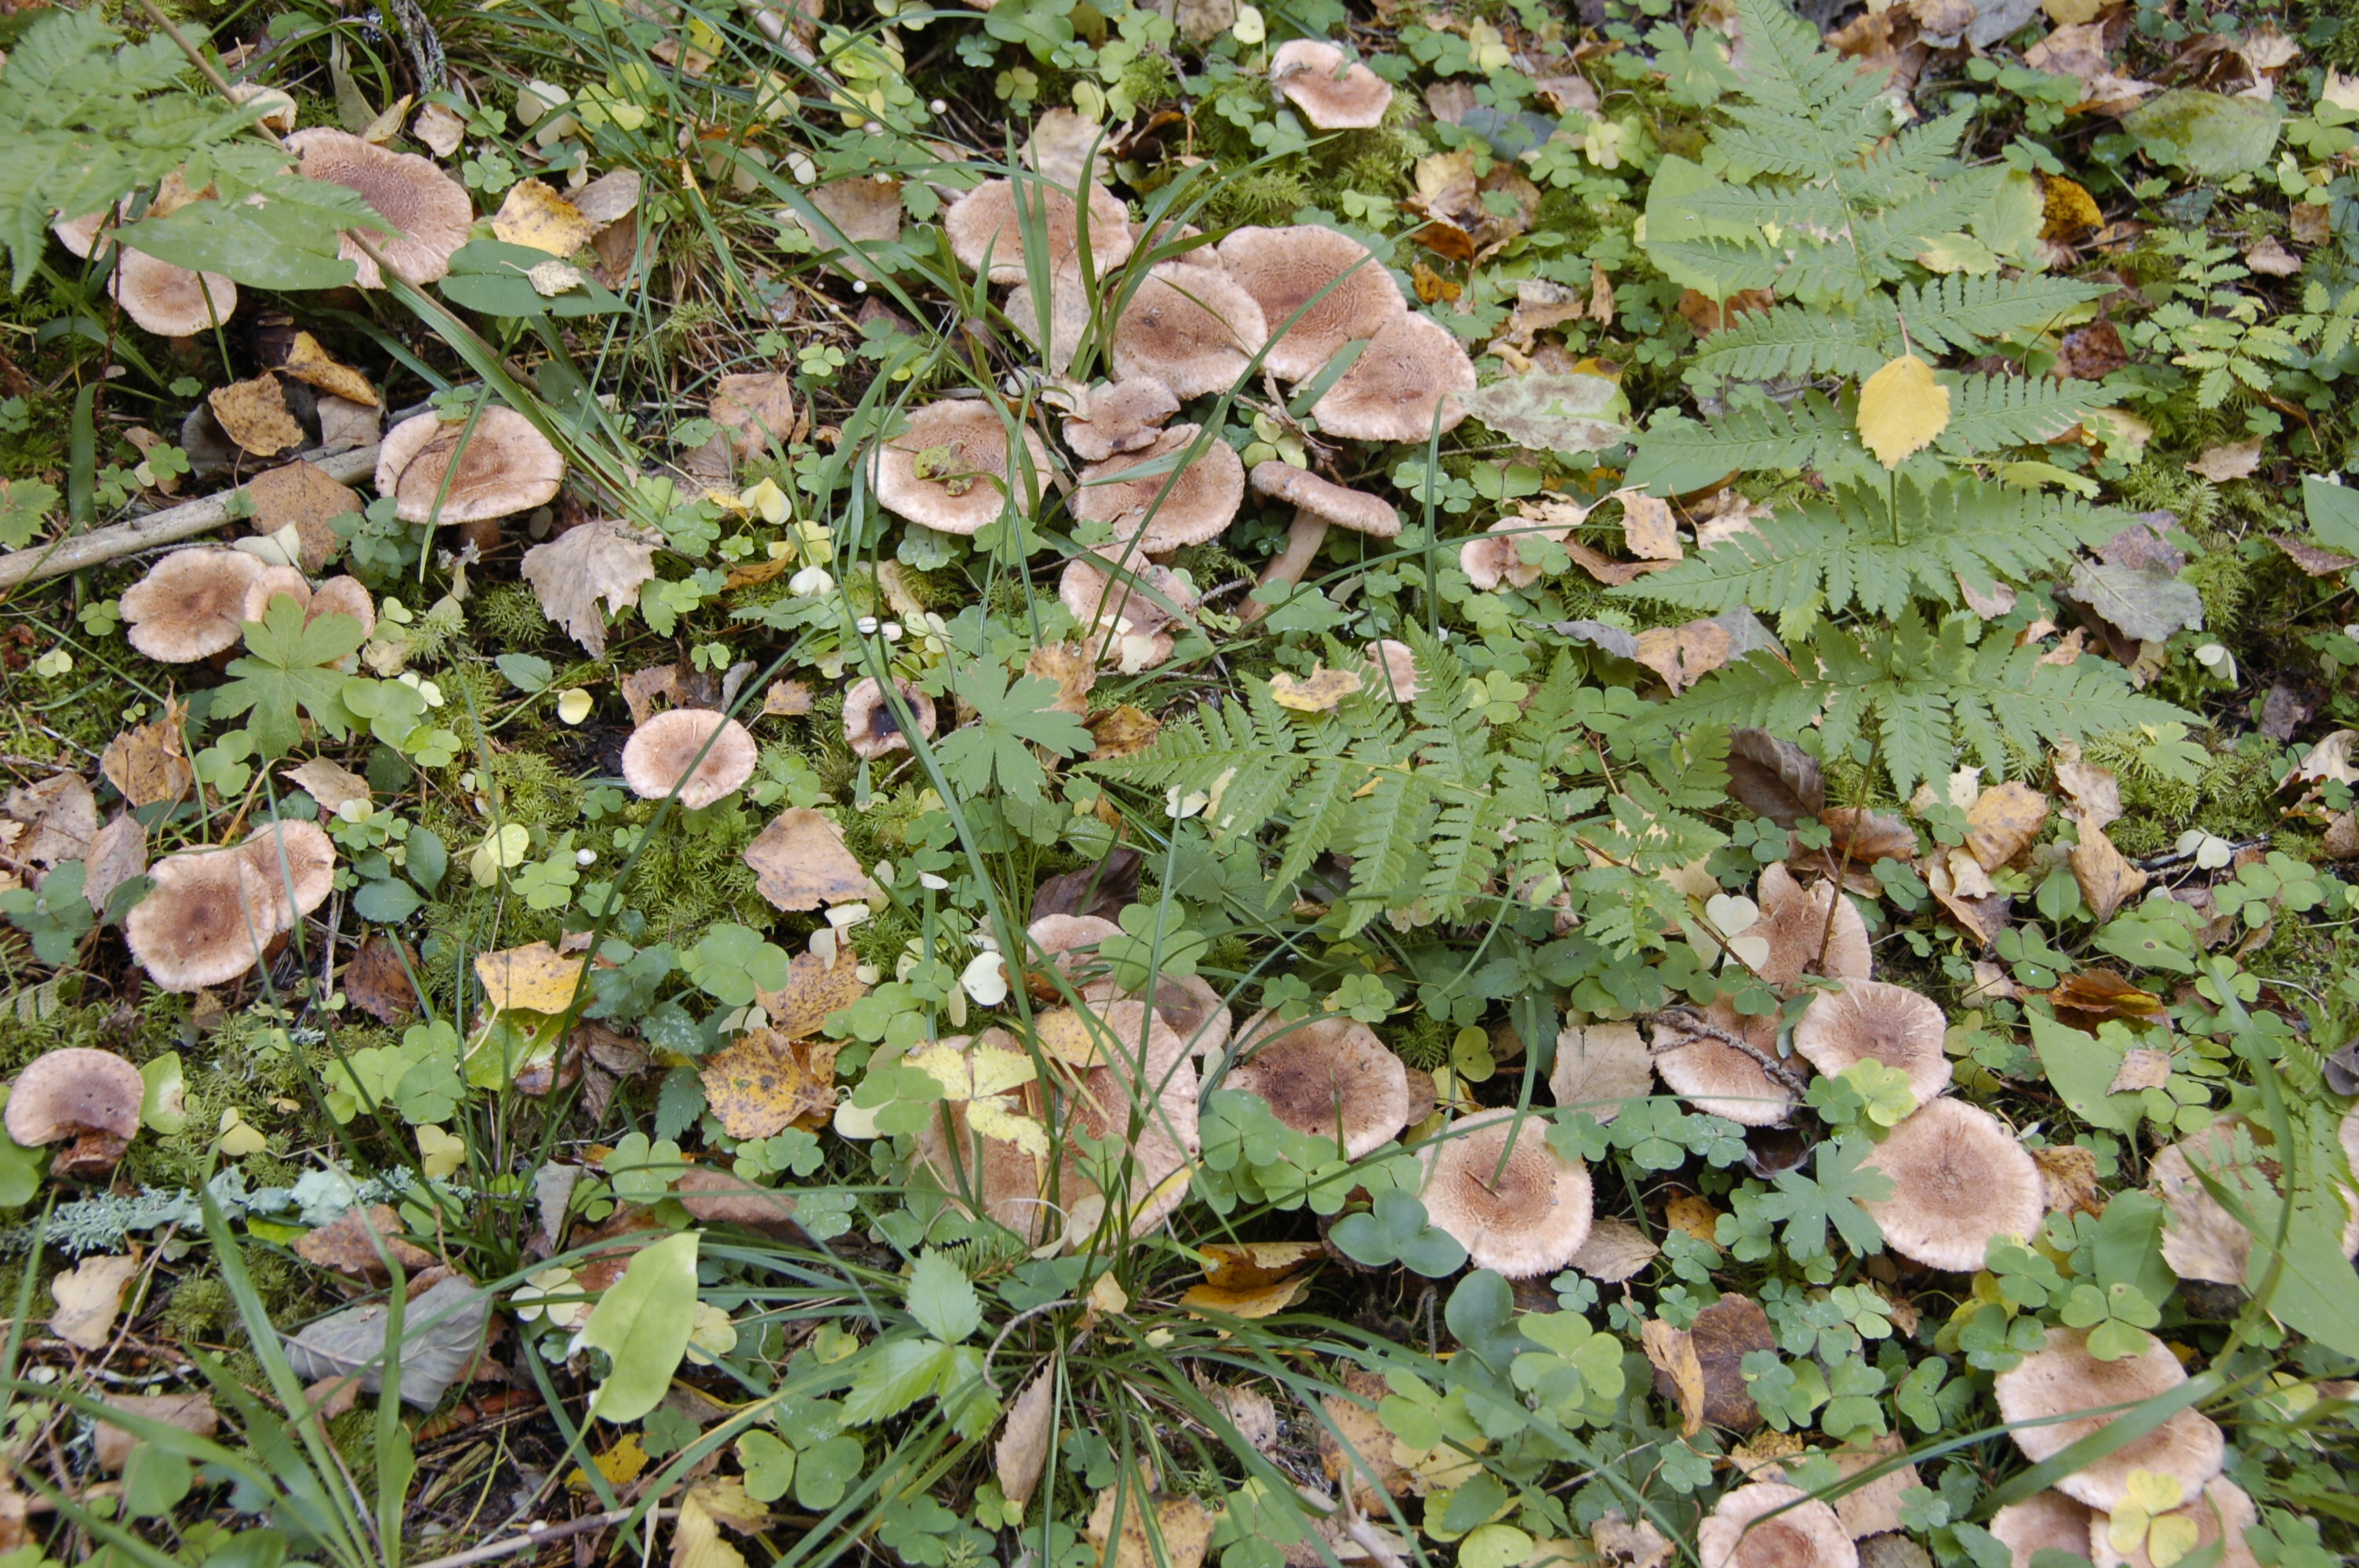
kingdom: Fungi
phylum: Basidiomycota
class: Agaricomycetes
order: Agaricales
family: Tricholomataceae
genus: Tricholoma
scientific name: Tricholoma vaccinum
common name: Scaly knight
